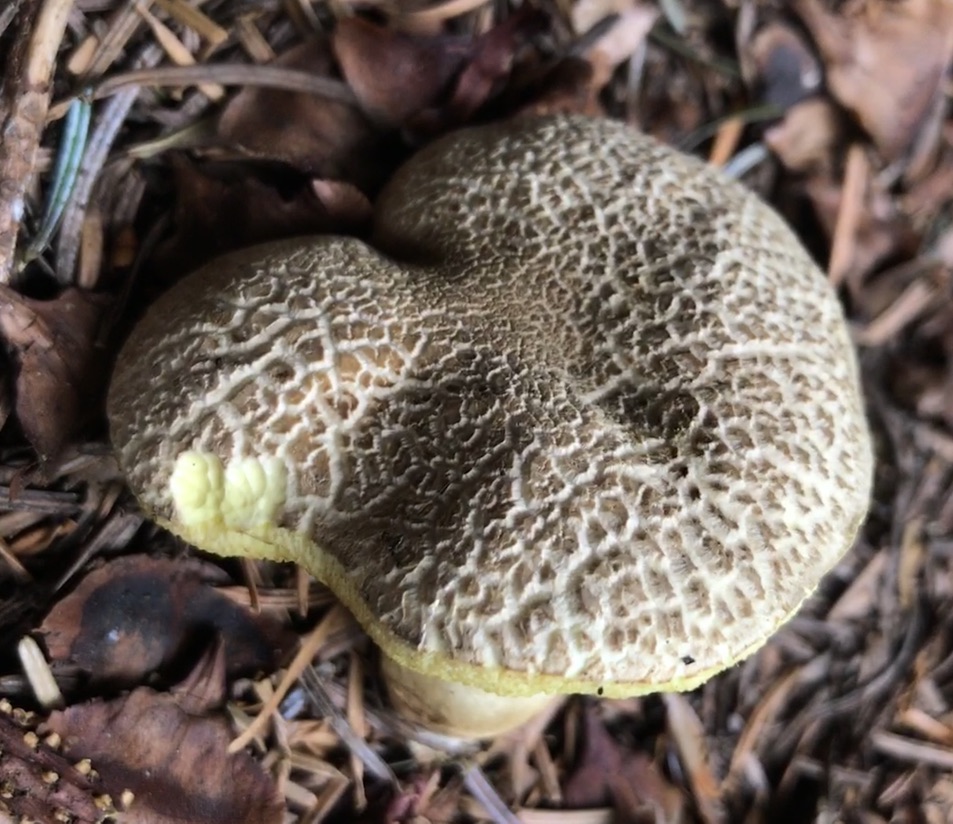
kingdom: Fungi
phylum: Basidiomycota
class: Agaricomycetes
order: Boletales
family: Boletaceae
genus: Xerocomellus
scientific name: Xerocomellus porosporus
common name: hvidsprukken rørhat
